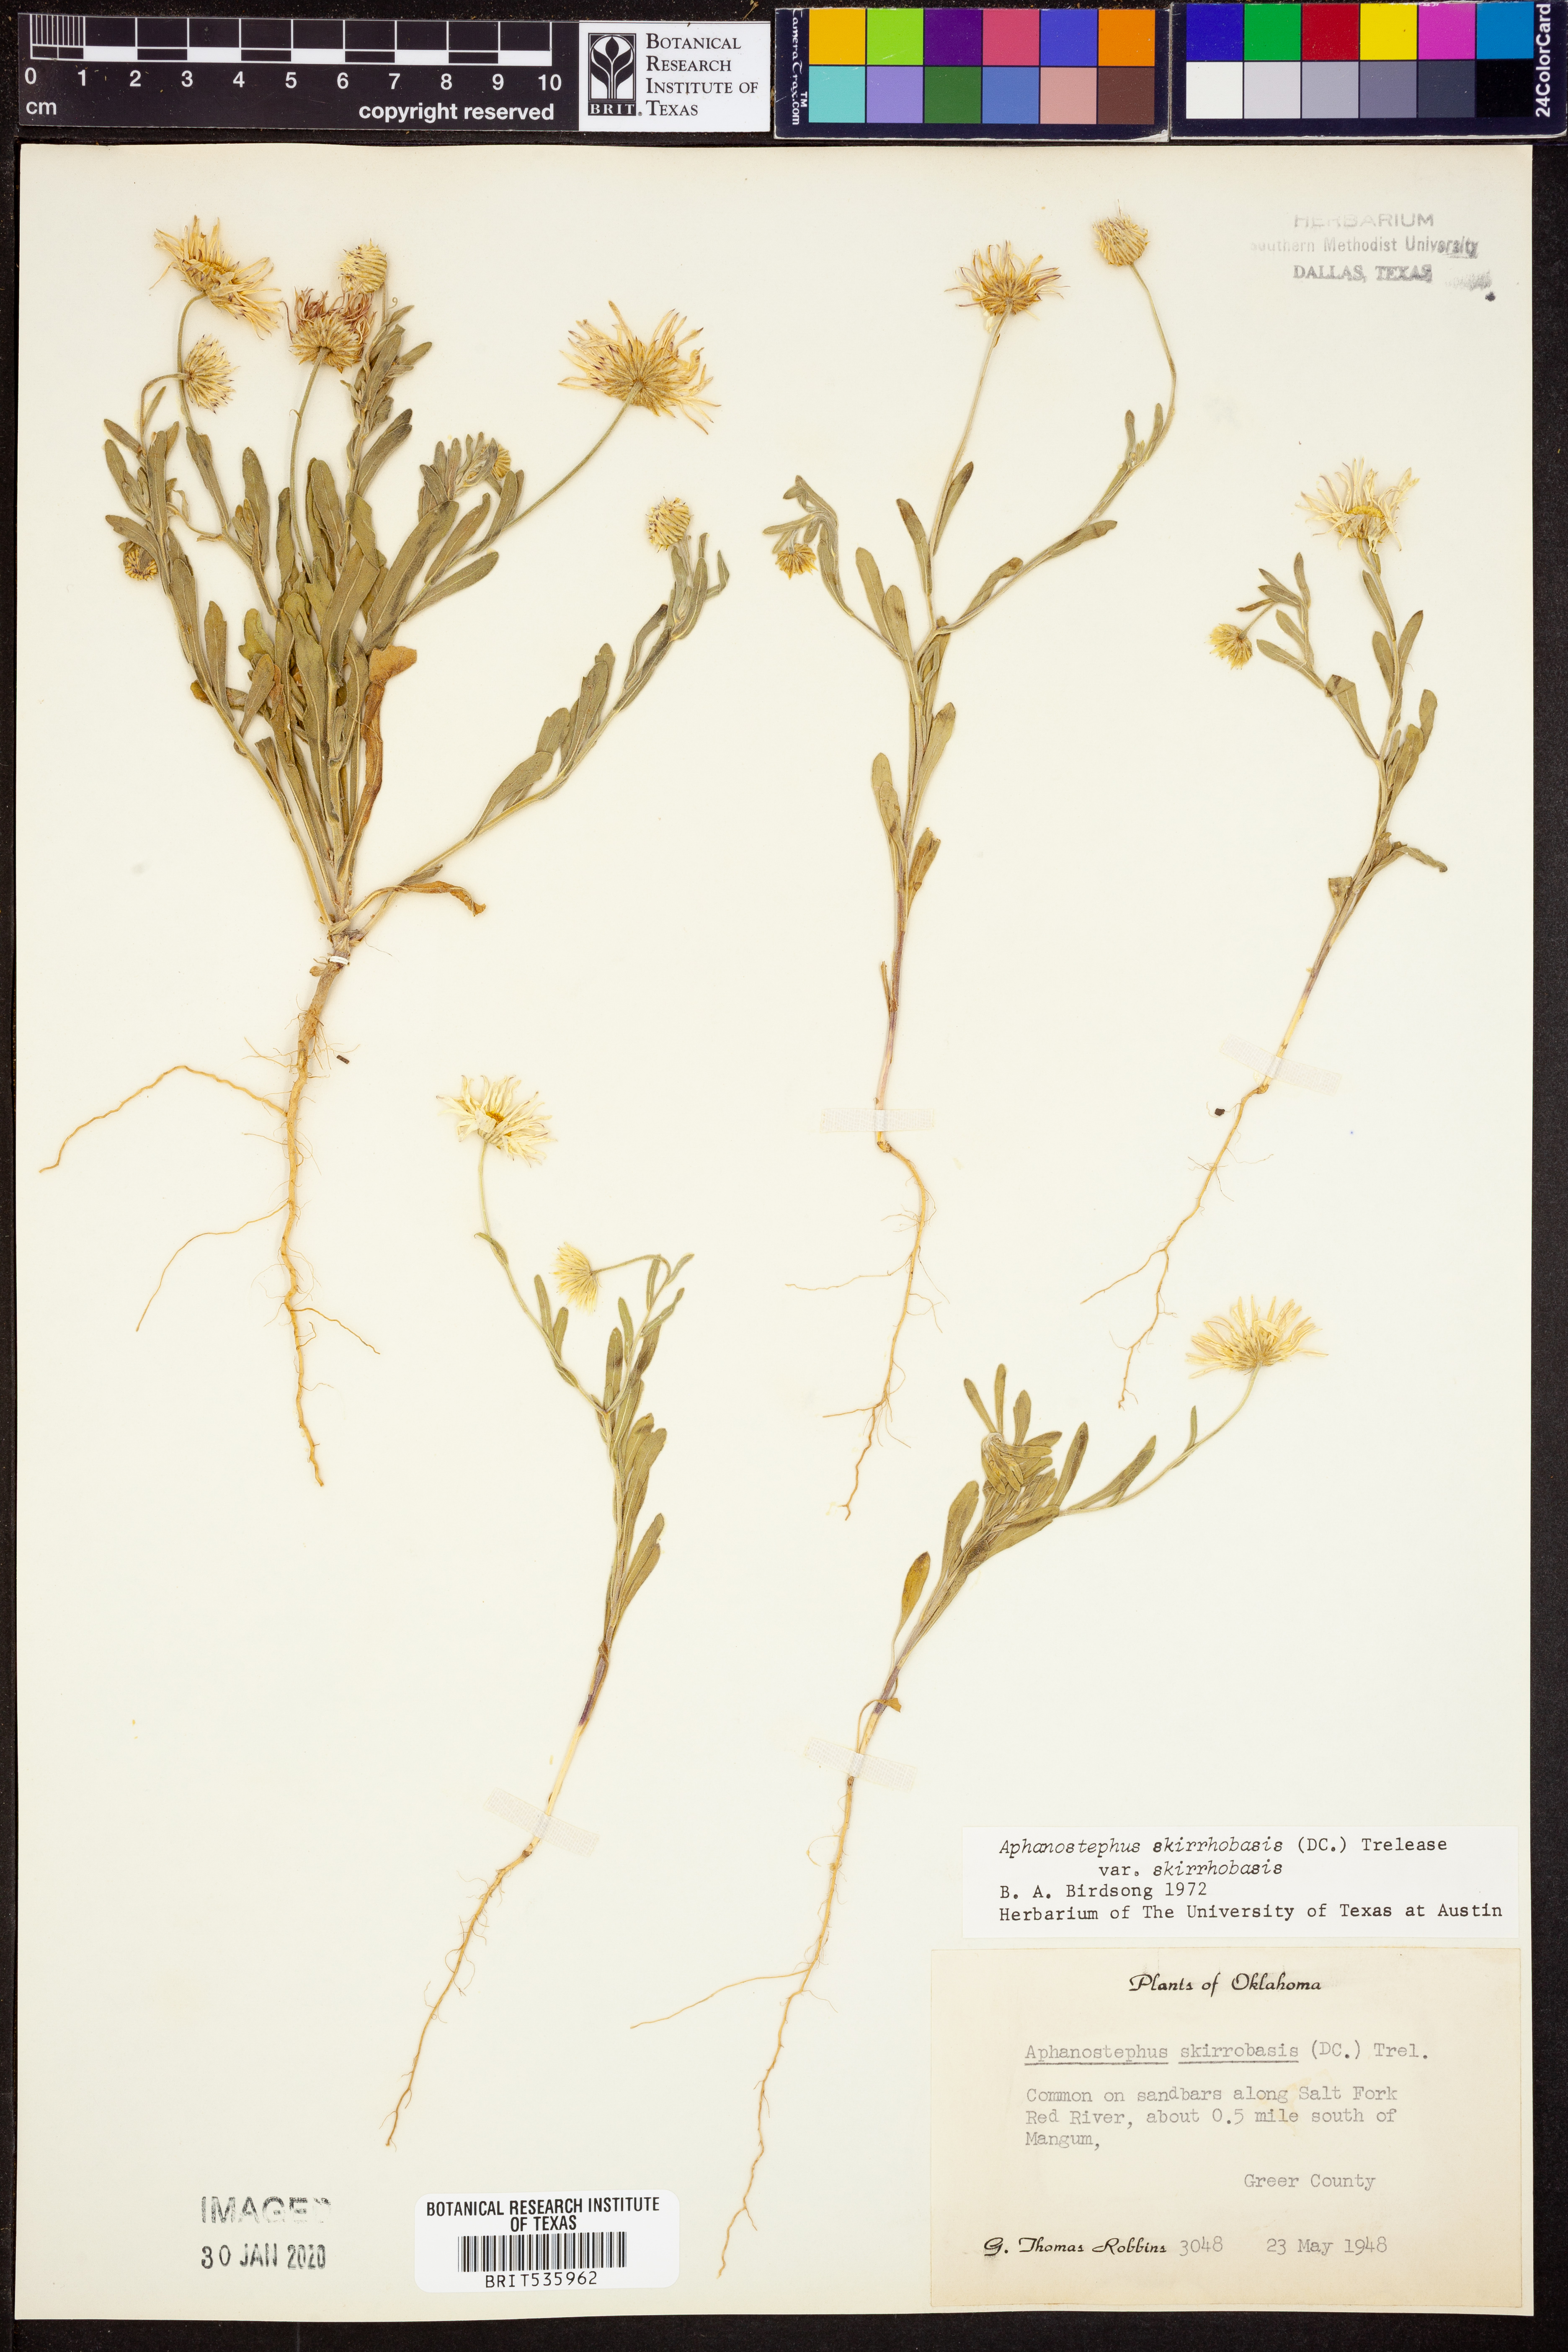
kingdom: Plantae
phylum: Tracheophyta
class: Magnoliopsida
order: Asterales
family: Asteraceae
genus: Aphanostephus
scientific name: Aphanostephus skirrhobasis
